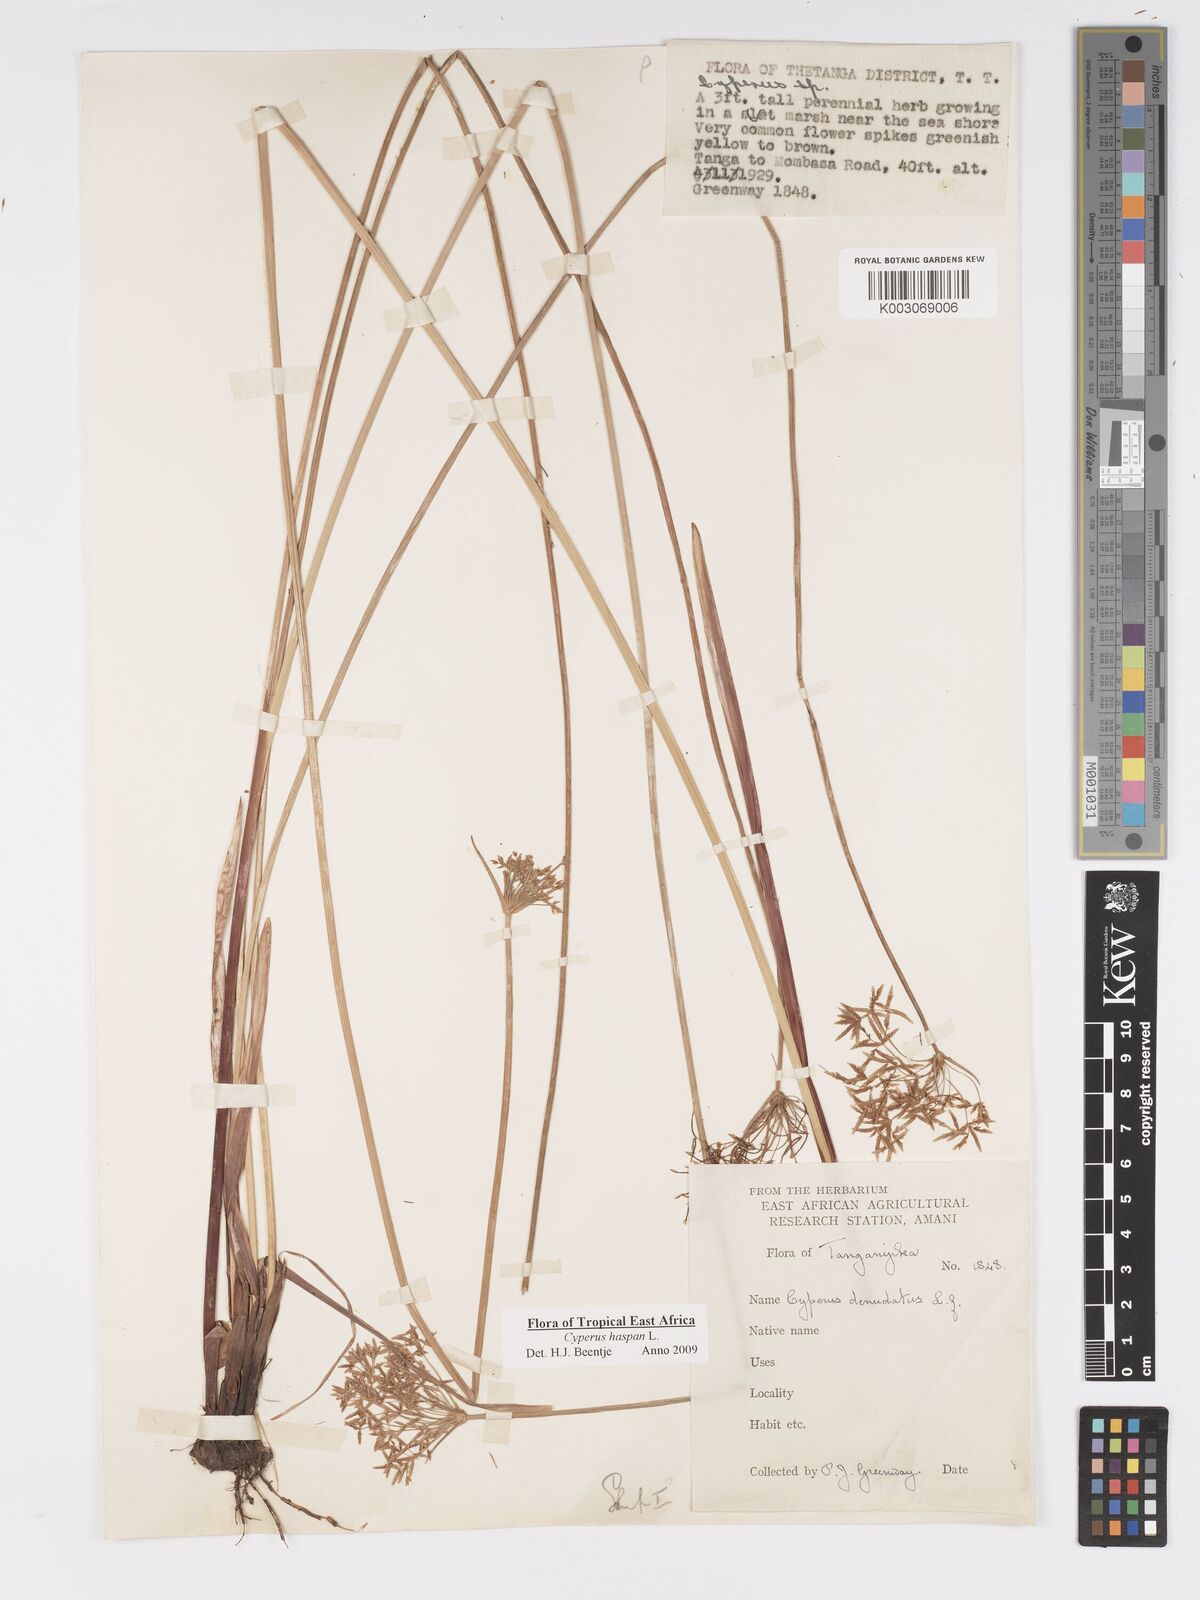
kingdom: Plantae
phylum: Tracheophyta
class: Liliopsida
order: Poales
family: Cyperaceae
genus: Cyperus
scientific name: Cyperus platycaulis
